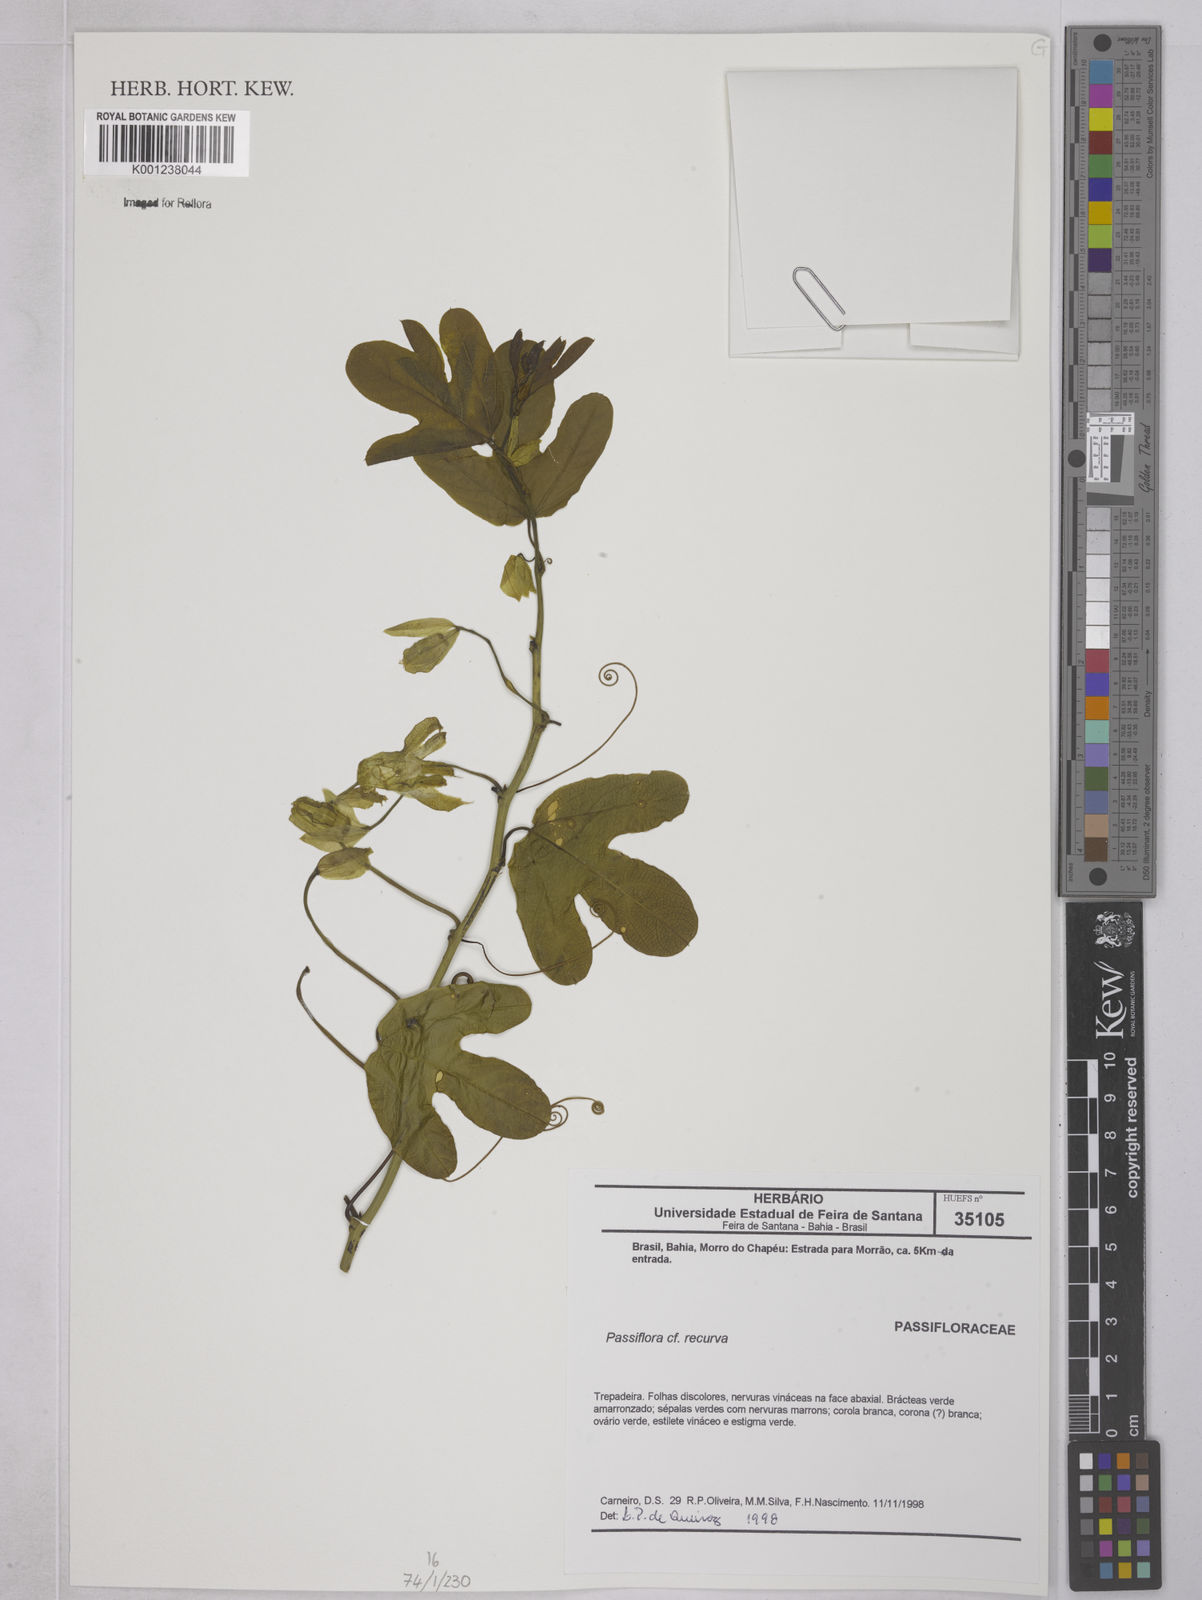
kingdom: Plantae
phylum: Tracheophyta
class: Magnoliopsida
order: Malpighiales
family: Passifloraceae
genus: Passiflora
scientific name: Passiflora recurva
